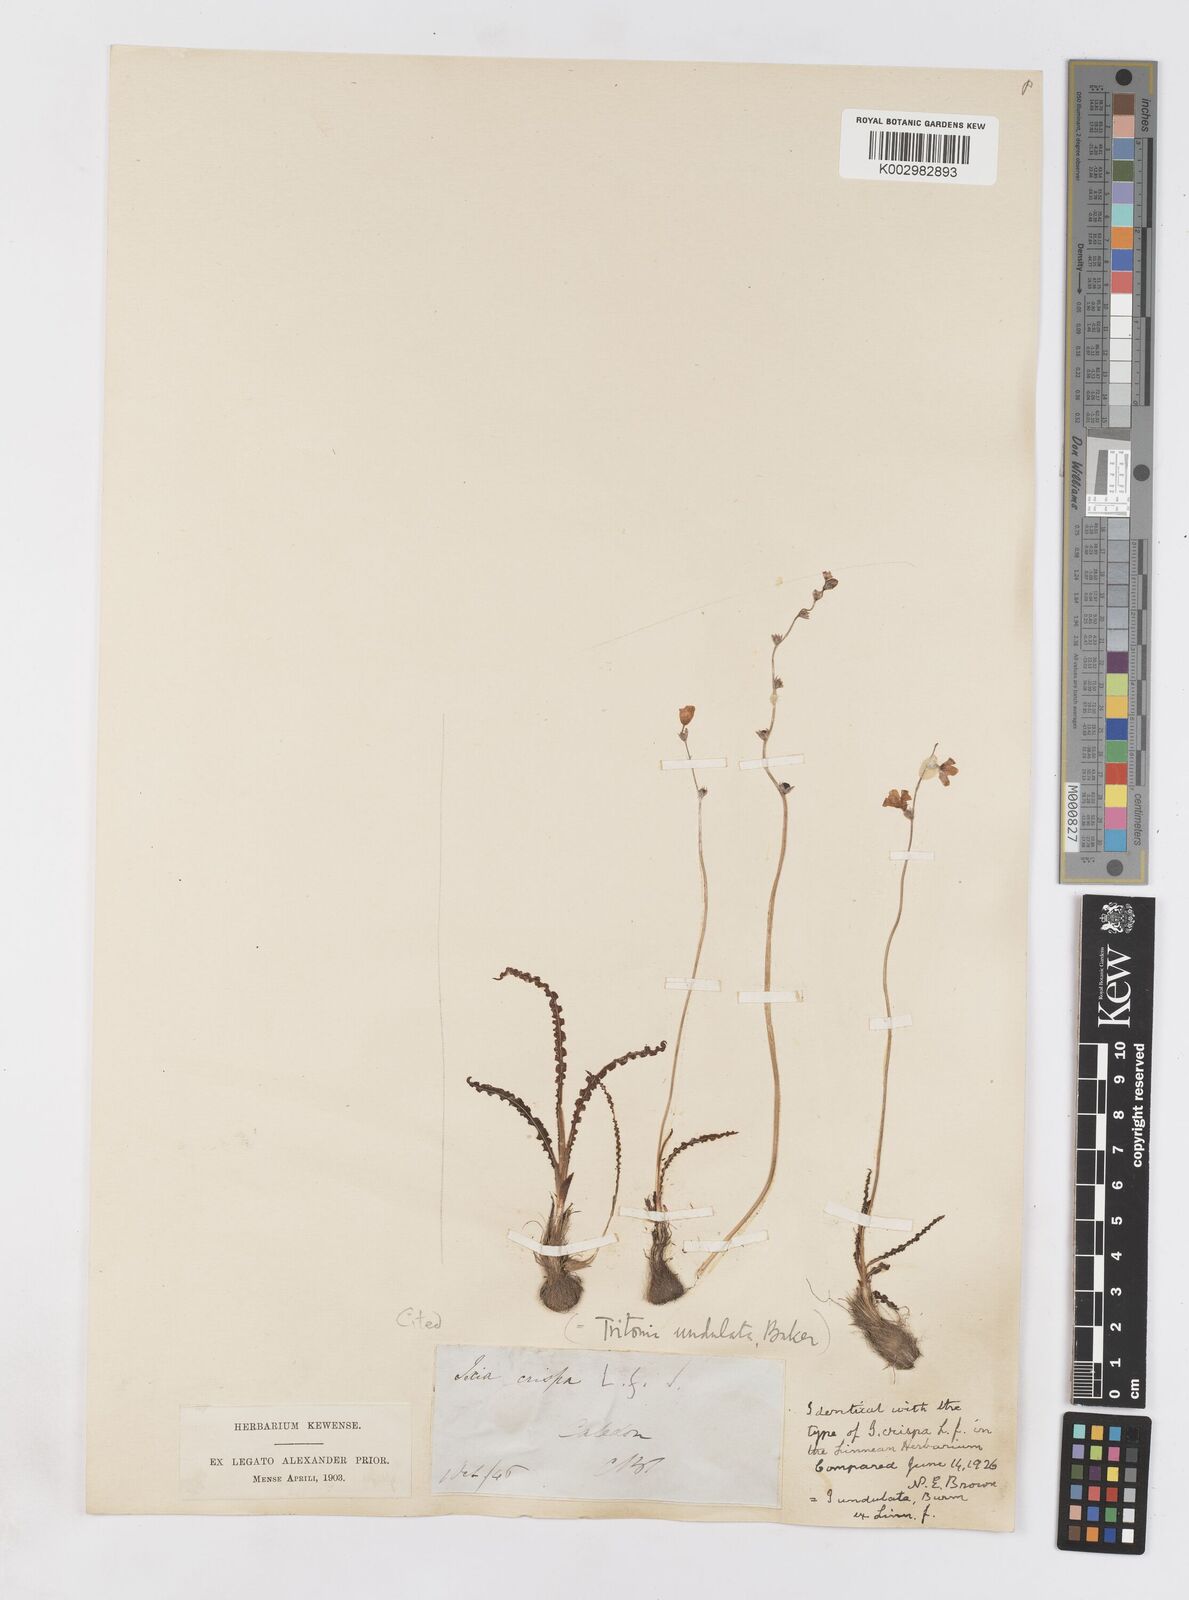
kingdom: Plantae
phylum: Tracheophyta
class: Liliopsida
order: Asparagales
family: Iridaceae
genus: Ixia
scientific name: Ixia erubescens
